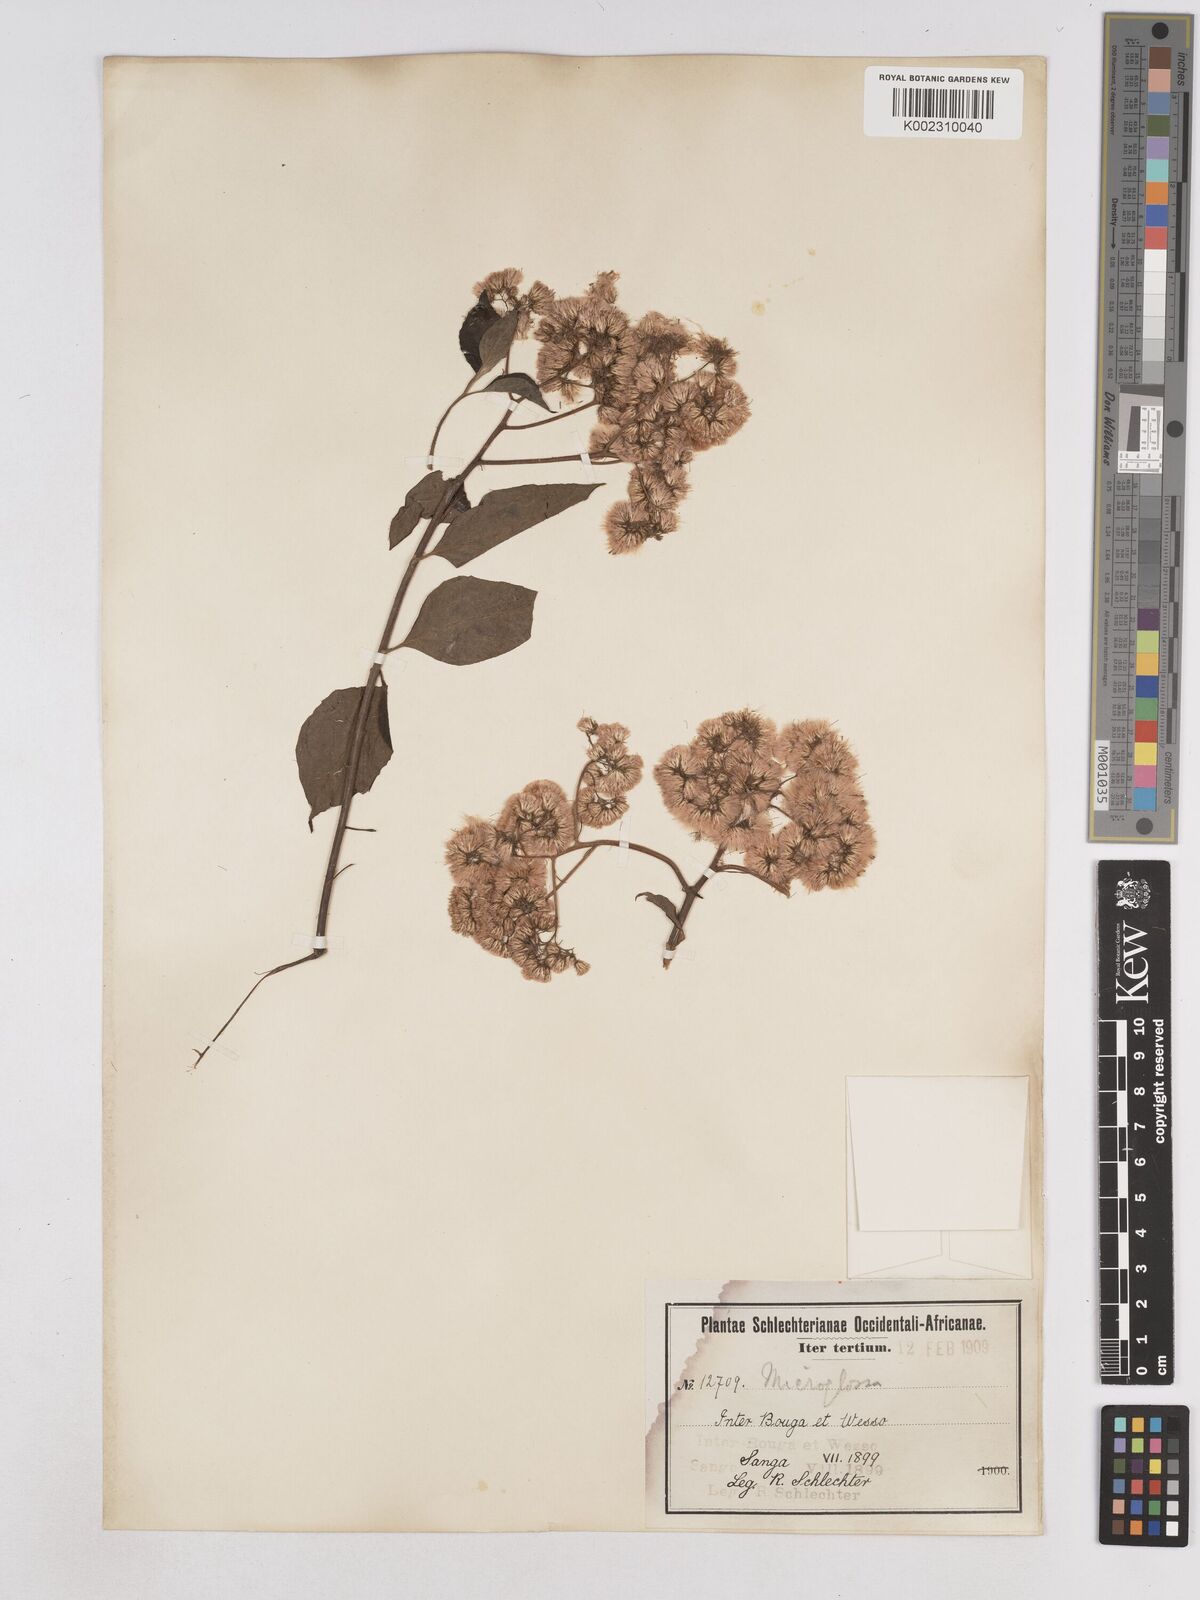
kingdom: Plantae
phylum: Tracheophyta
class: Magnoliopsida
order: Asterales
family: Asteraceae
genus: Microglossa
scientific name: Microglossa pyrifolia
